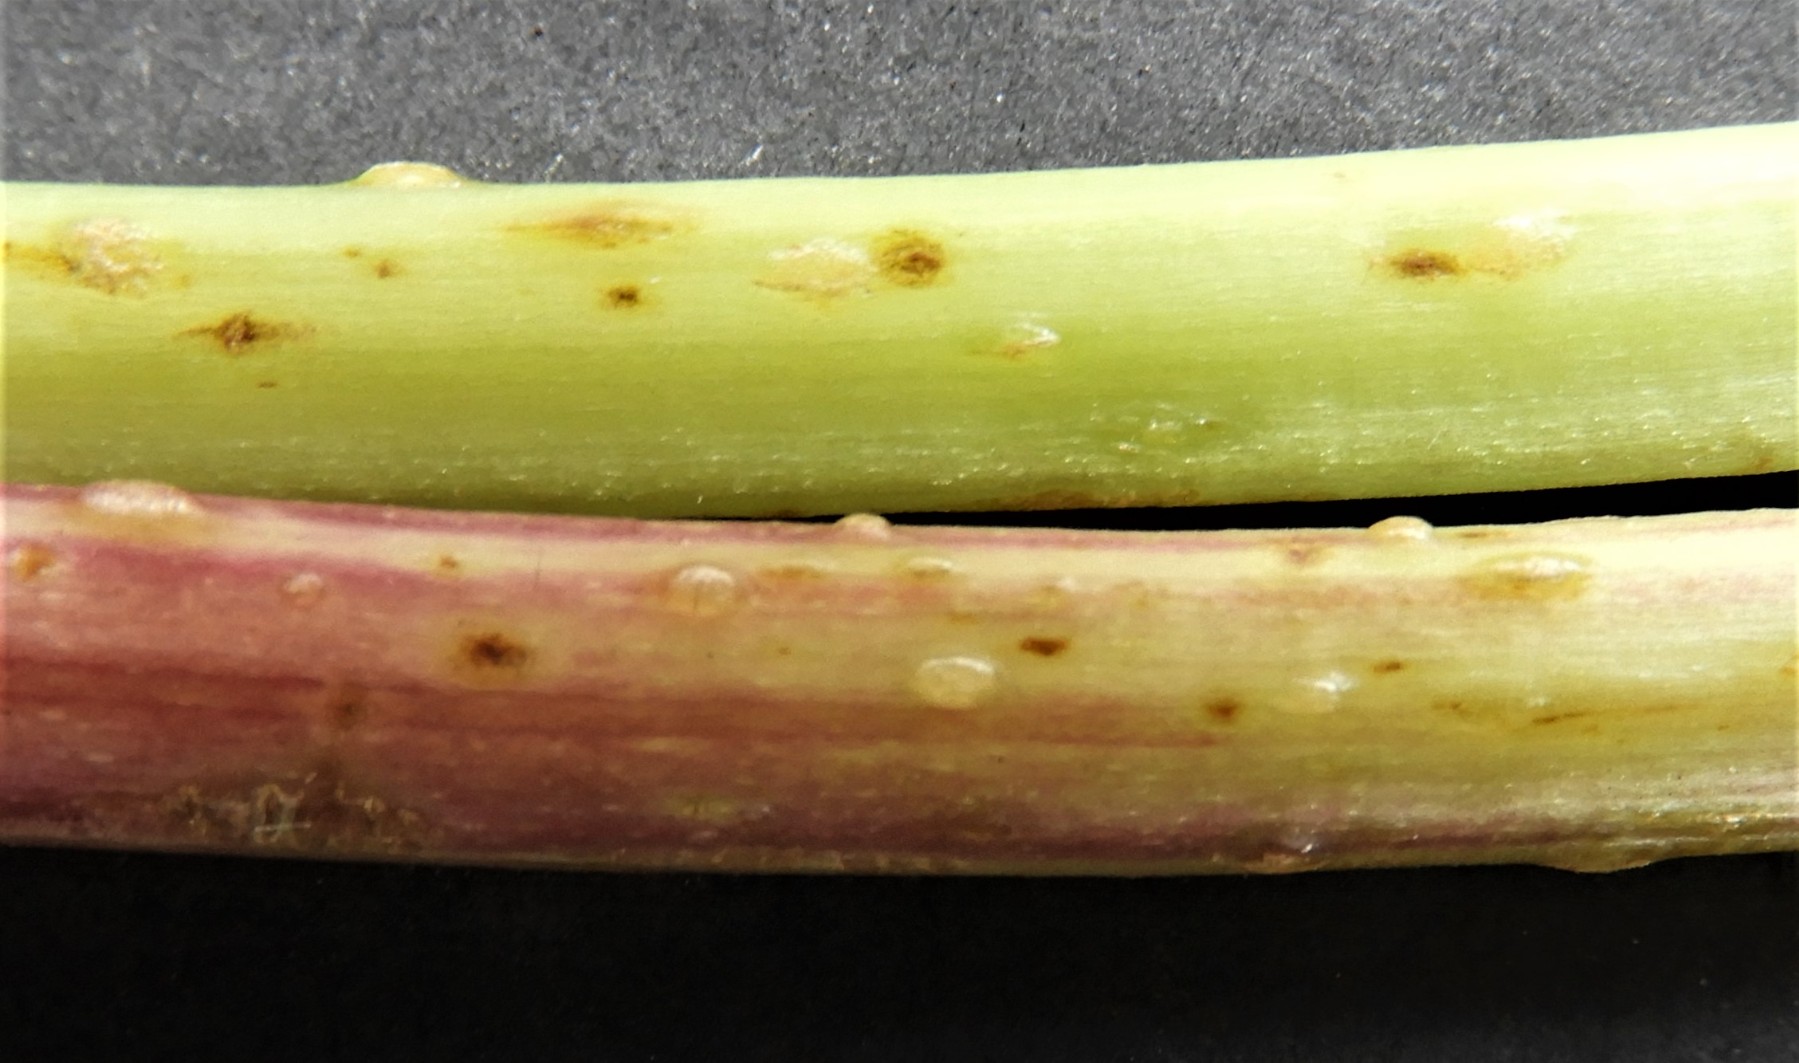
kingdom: Fungi
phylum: Ascomycota
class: Taphrinomycetes
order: Taphrinales
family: Taphrinaceae
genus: Protomyces
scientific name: Protomyces macrosporus
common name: skvalderkål-vablesæk
